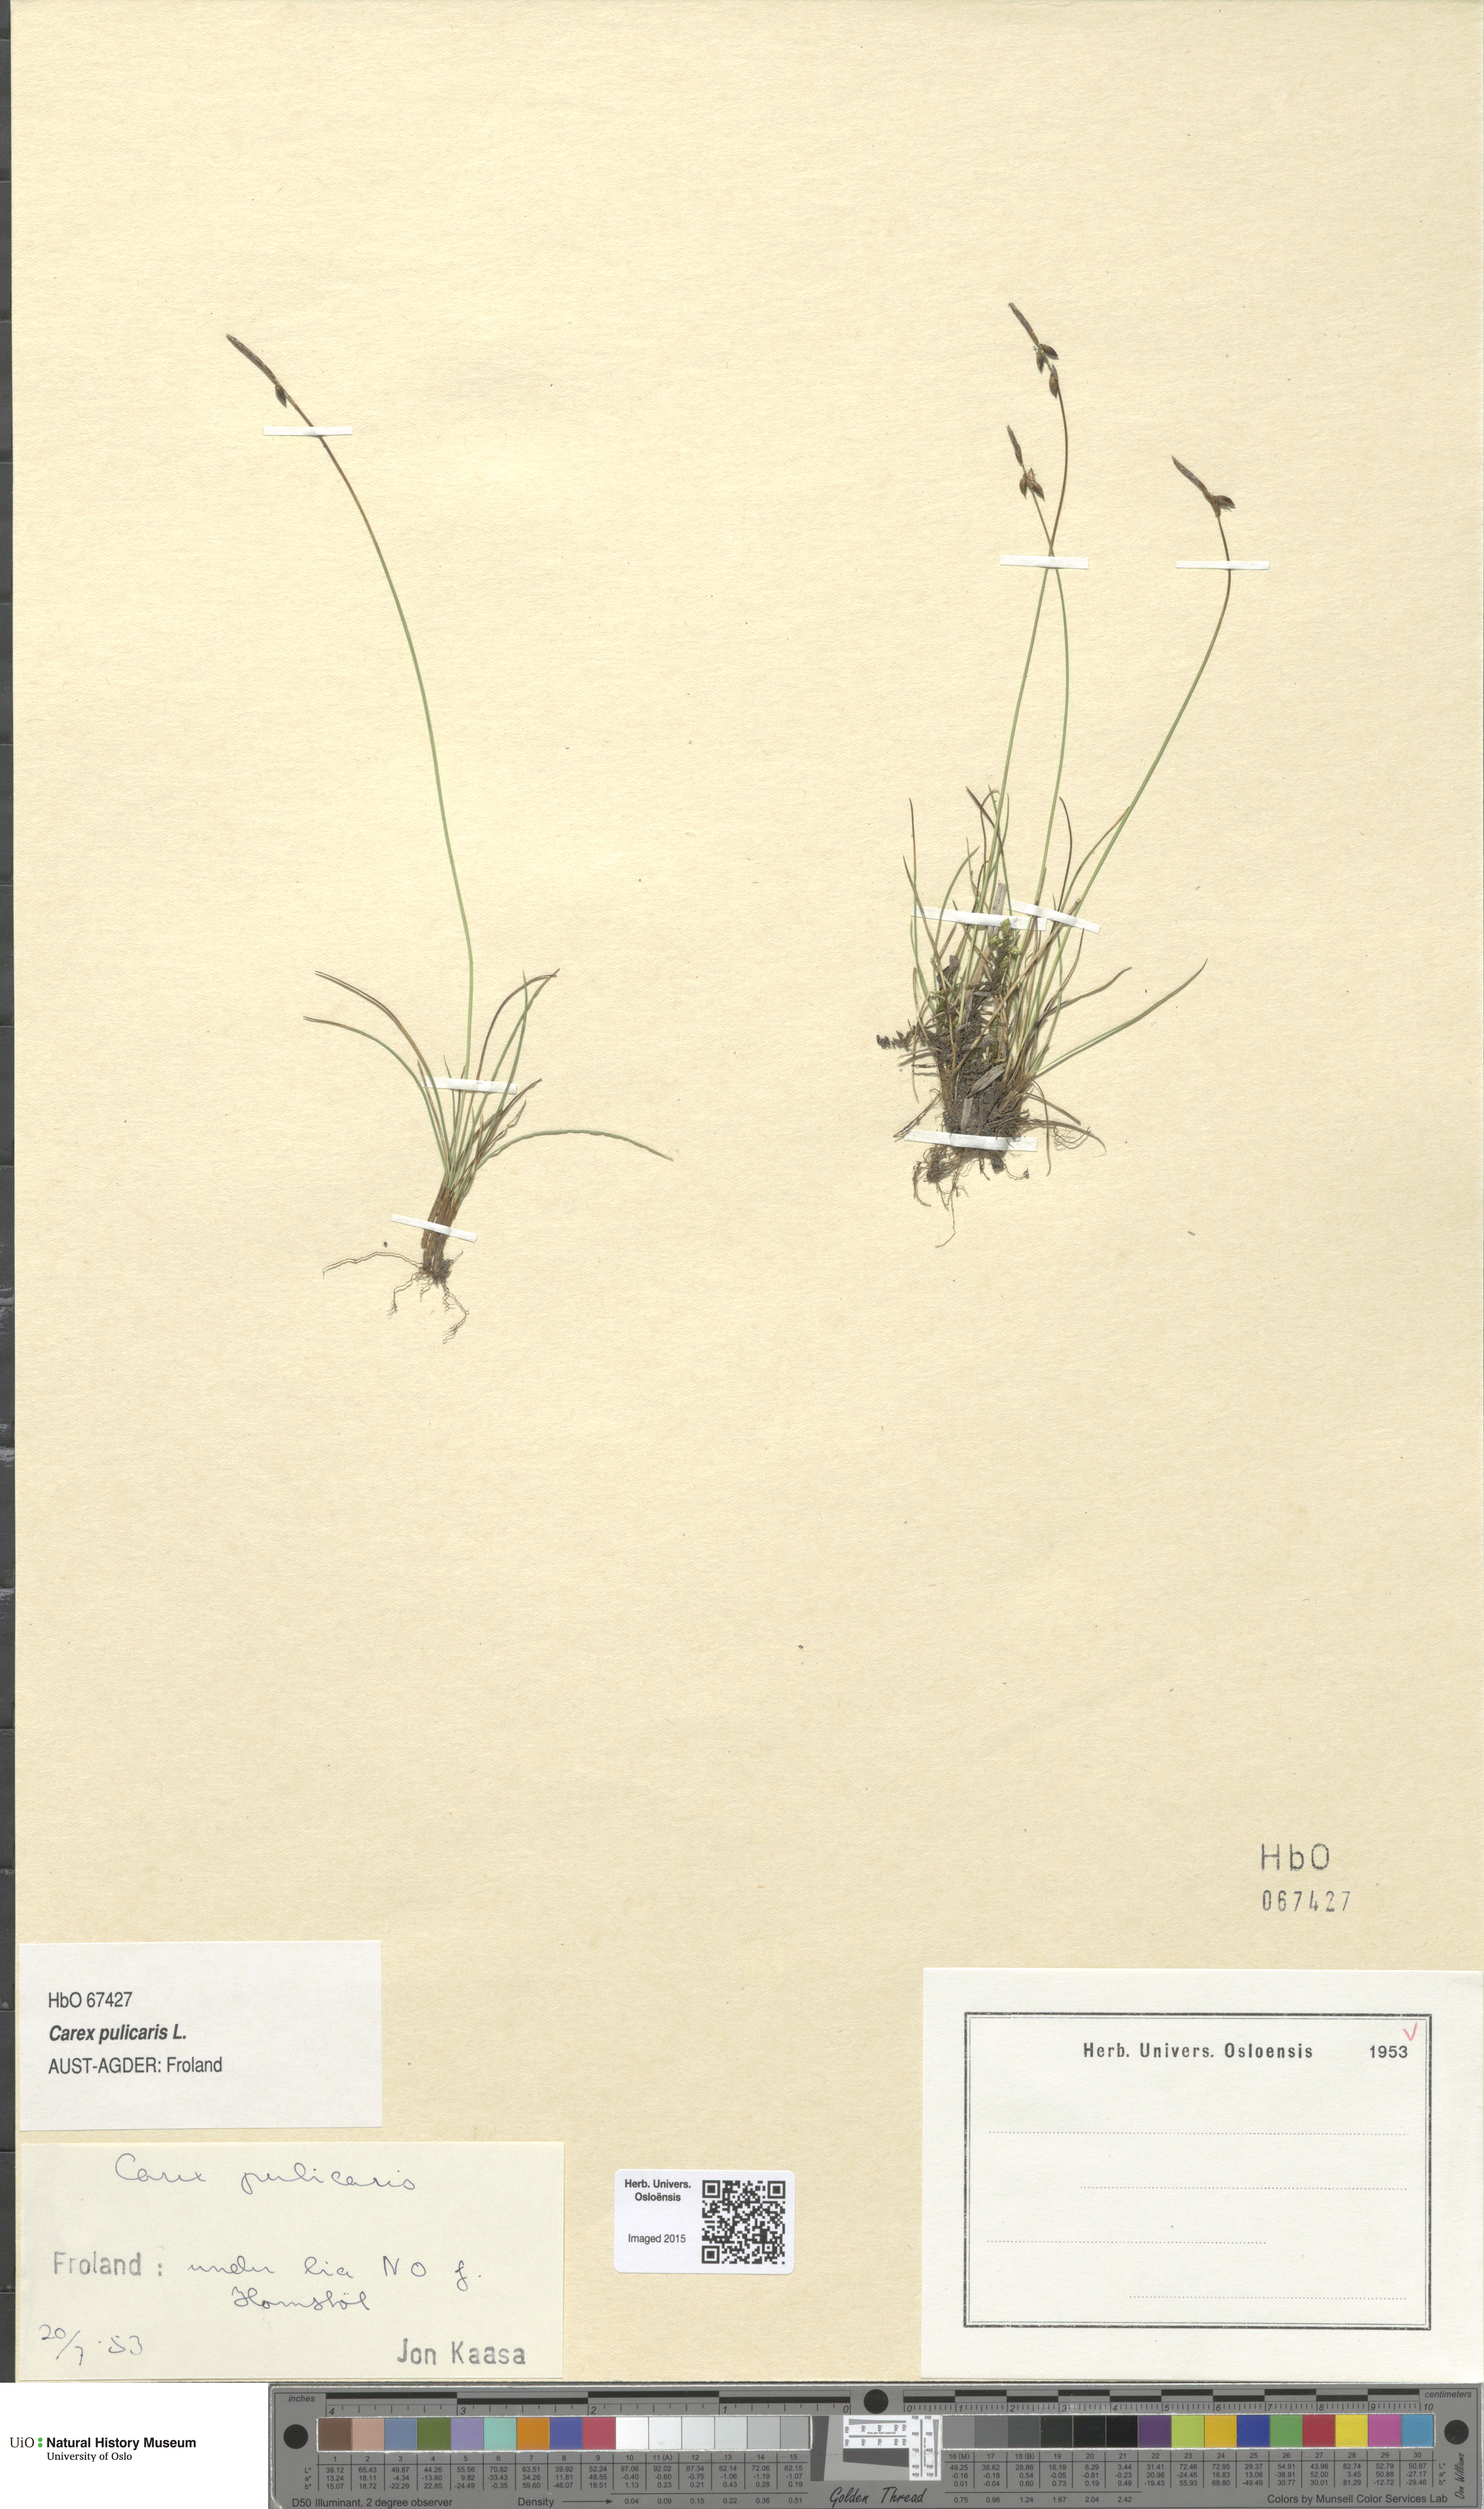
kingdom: Plantae
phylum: Tracheophyta
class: Liliopsida
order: Poales
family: Cyperaceae
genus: Carex
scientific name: Carex pulicaris
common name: Flea sedge
